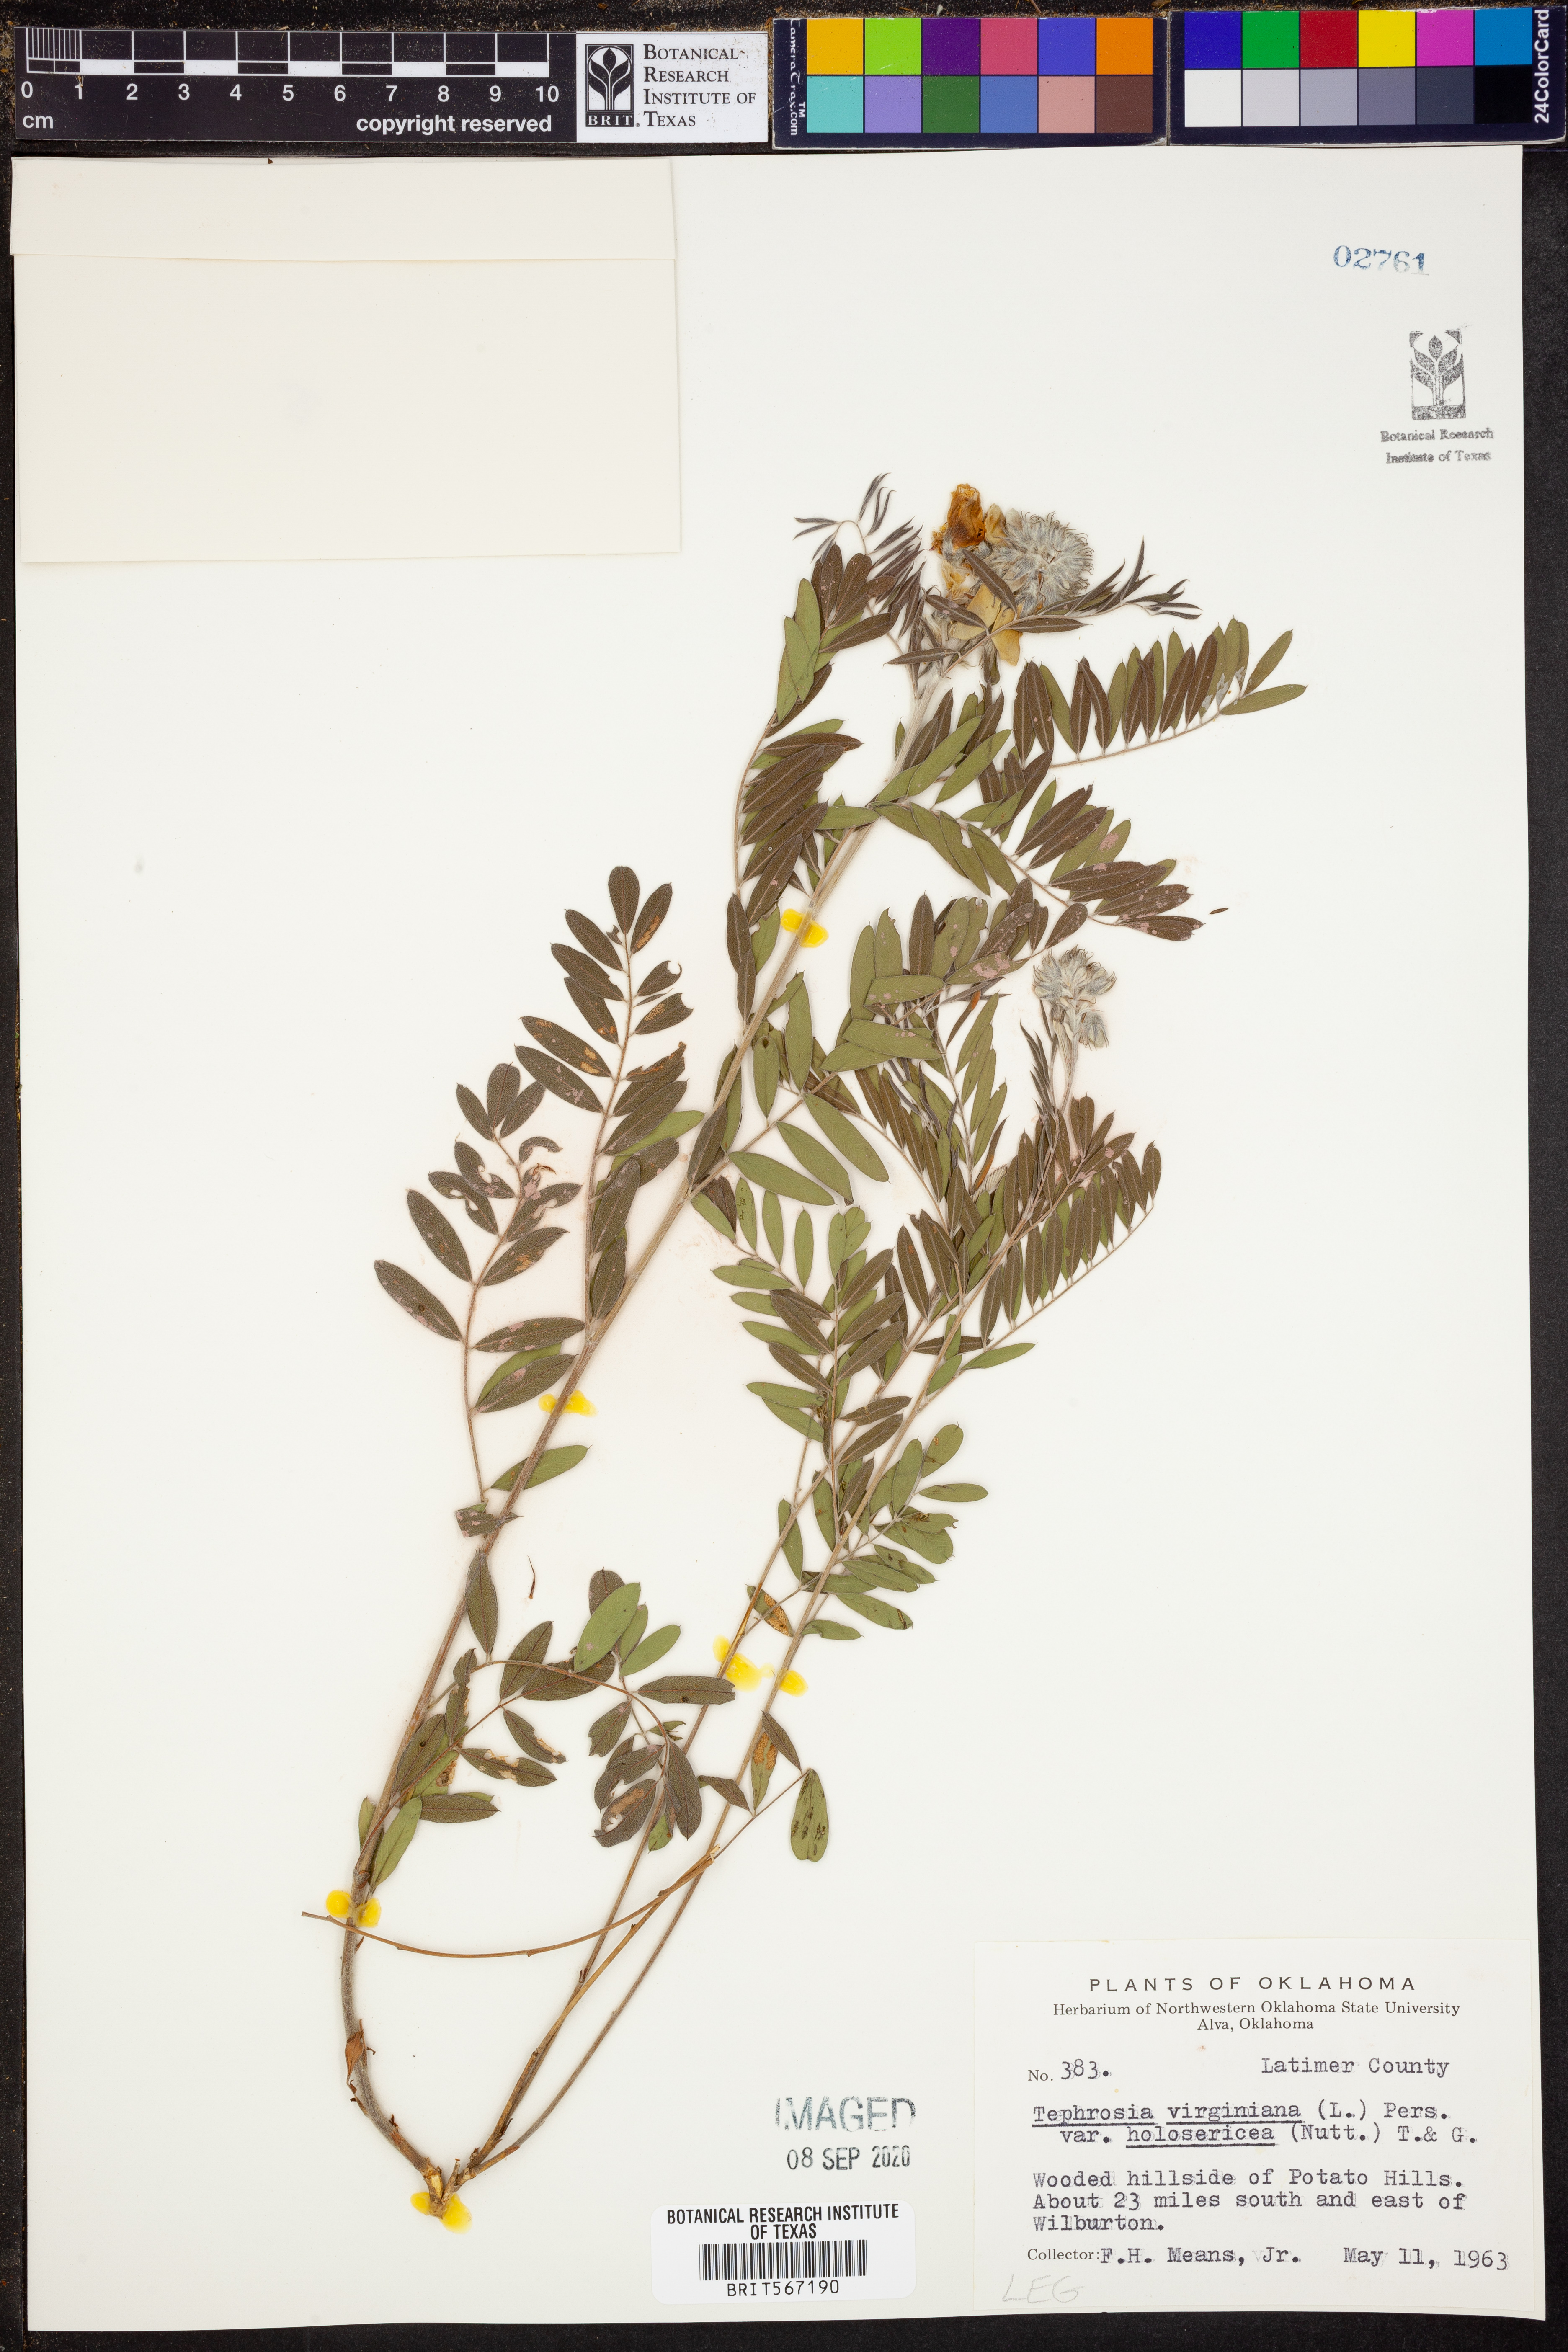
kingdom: Plantae
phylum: Tracheophyta
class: Magnoliopsida
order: Fabales
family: Fabaceae
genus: Tephrosia
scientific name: Tephrosia virginiana
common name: Rabbit-pea
